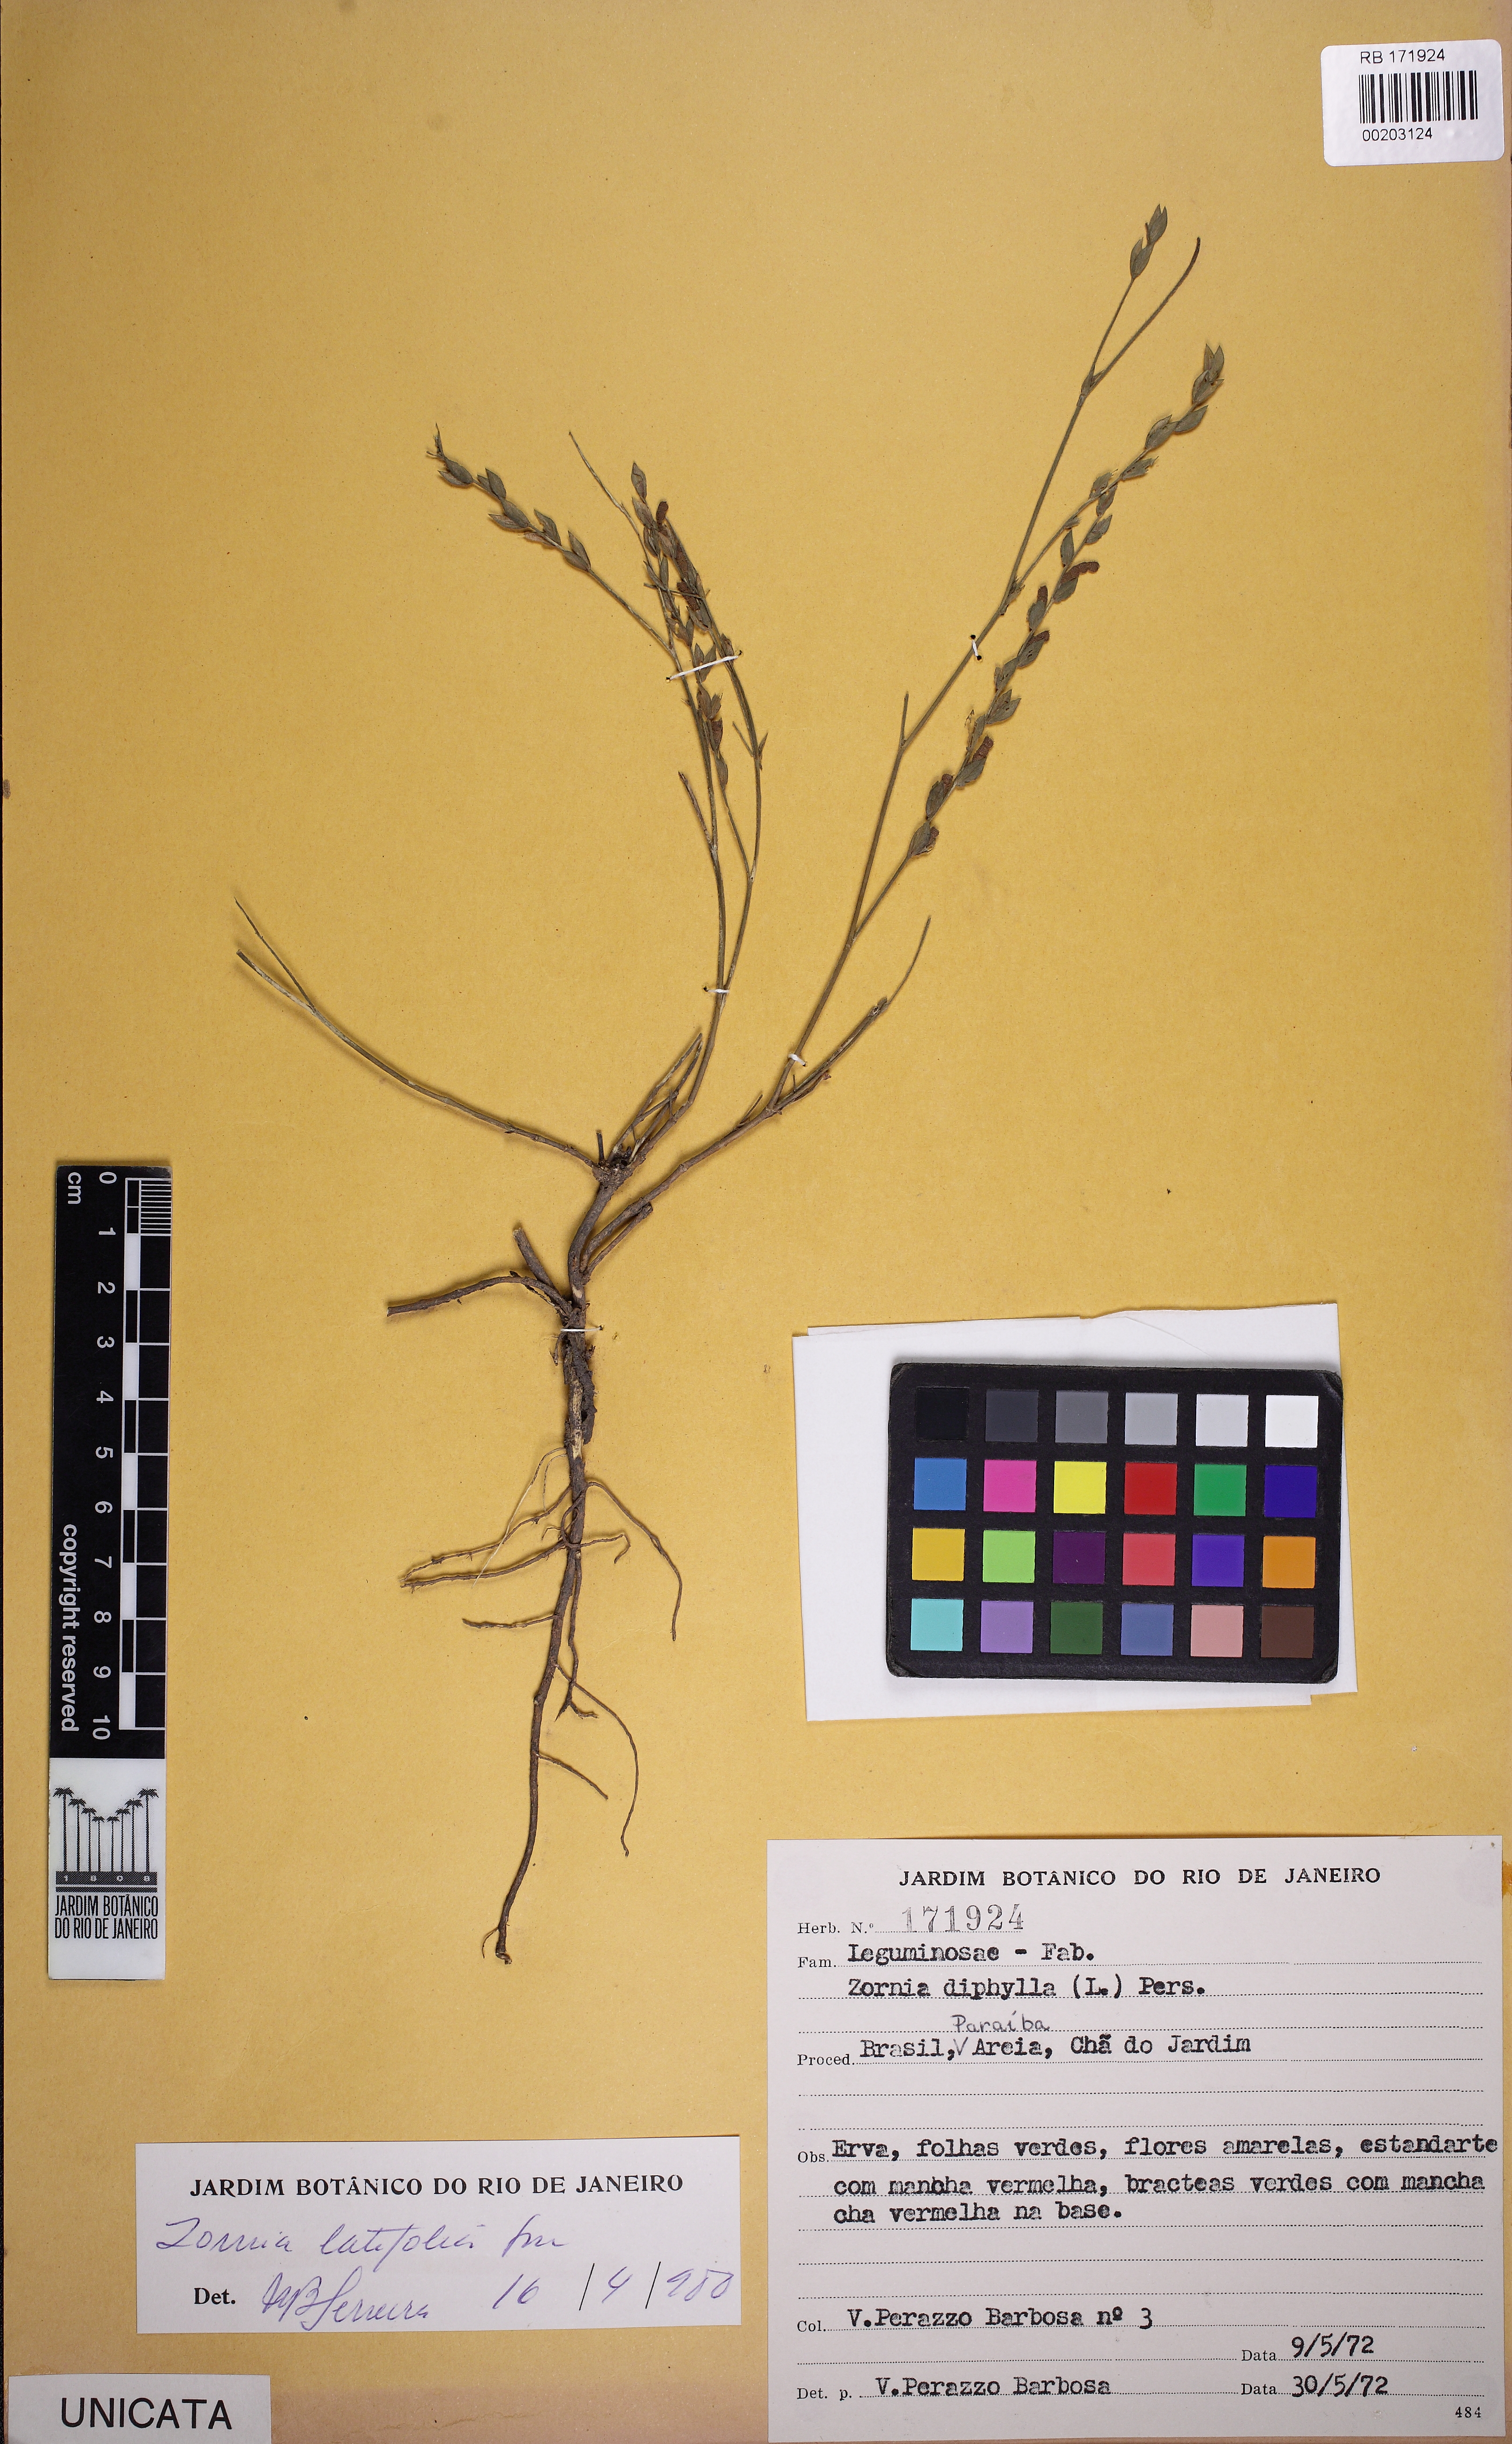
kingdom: Plantae
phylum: Tracheophyta
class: Magnoliopsida
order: Fabales
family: Fabaceae
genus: Zornia
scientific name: Zornia latifolia
